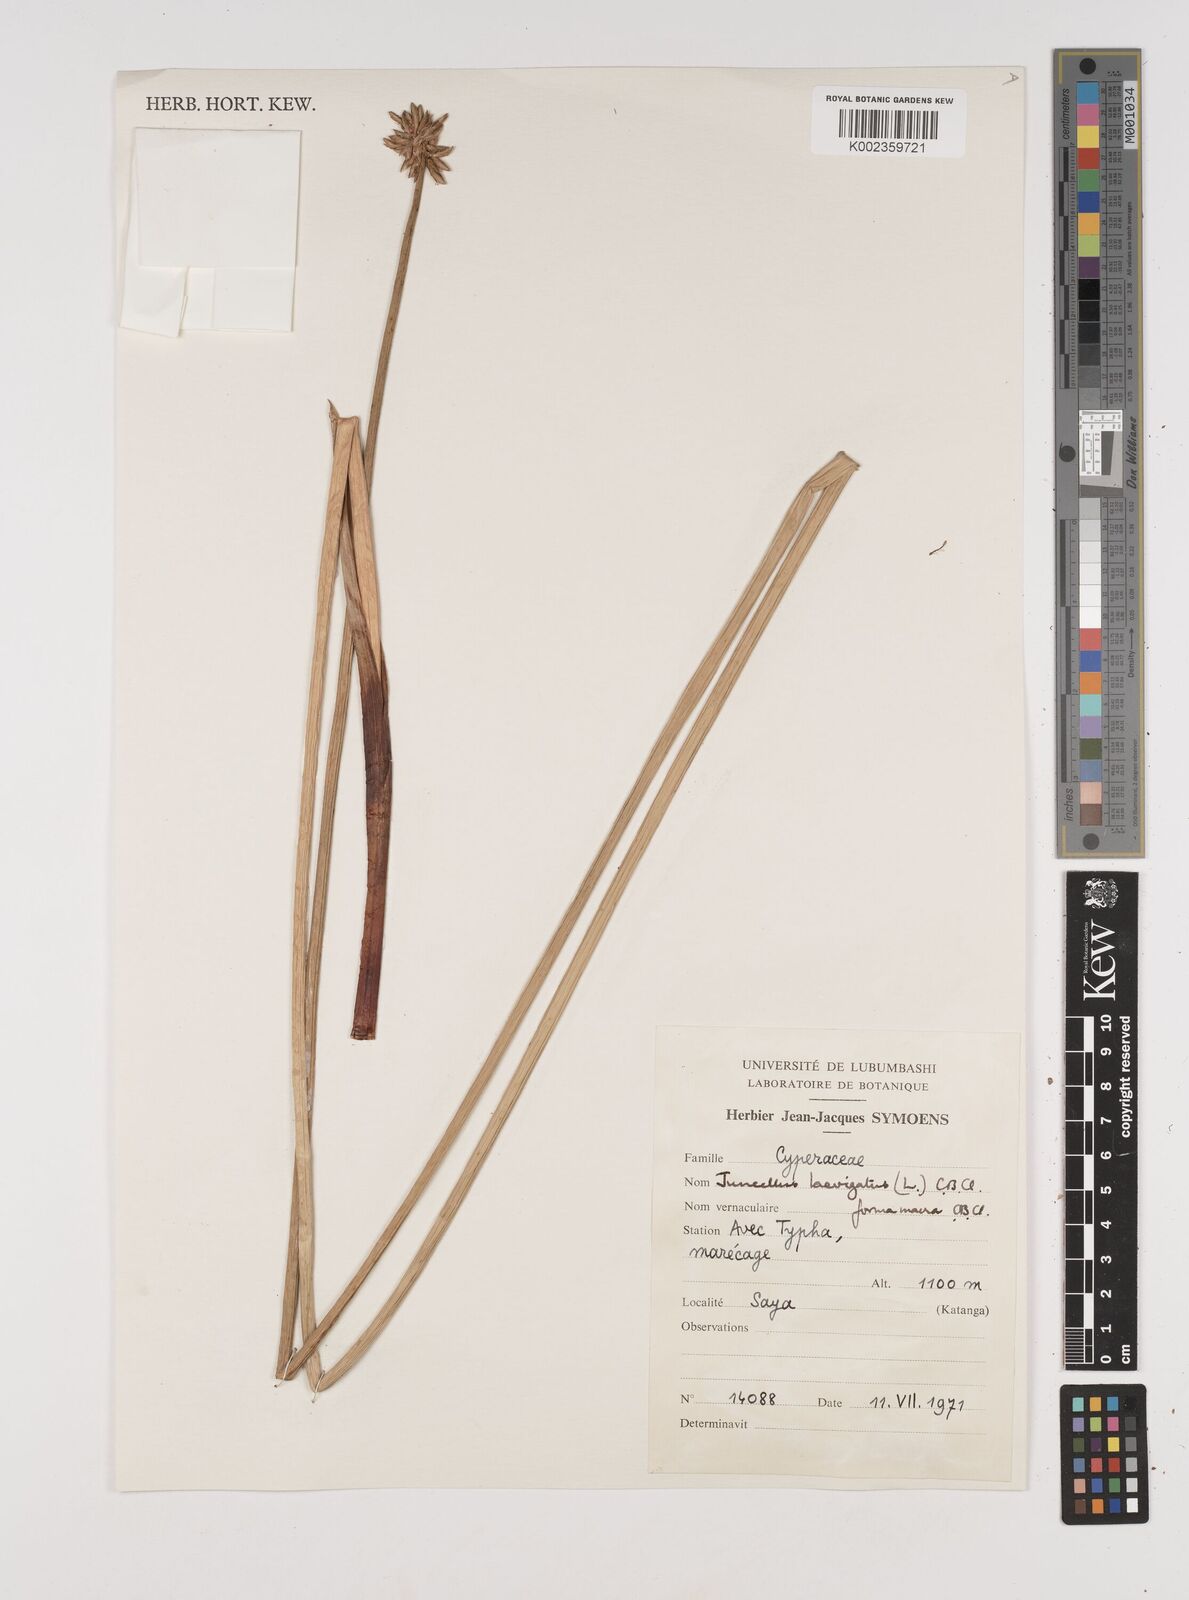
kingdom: Plantae
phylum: Tracheophyta
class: Liliopsida
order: Poales
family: Cyperaceae
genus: Cyperus
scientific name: Cyperus laevigatus
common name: Smooth flat sedge
